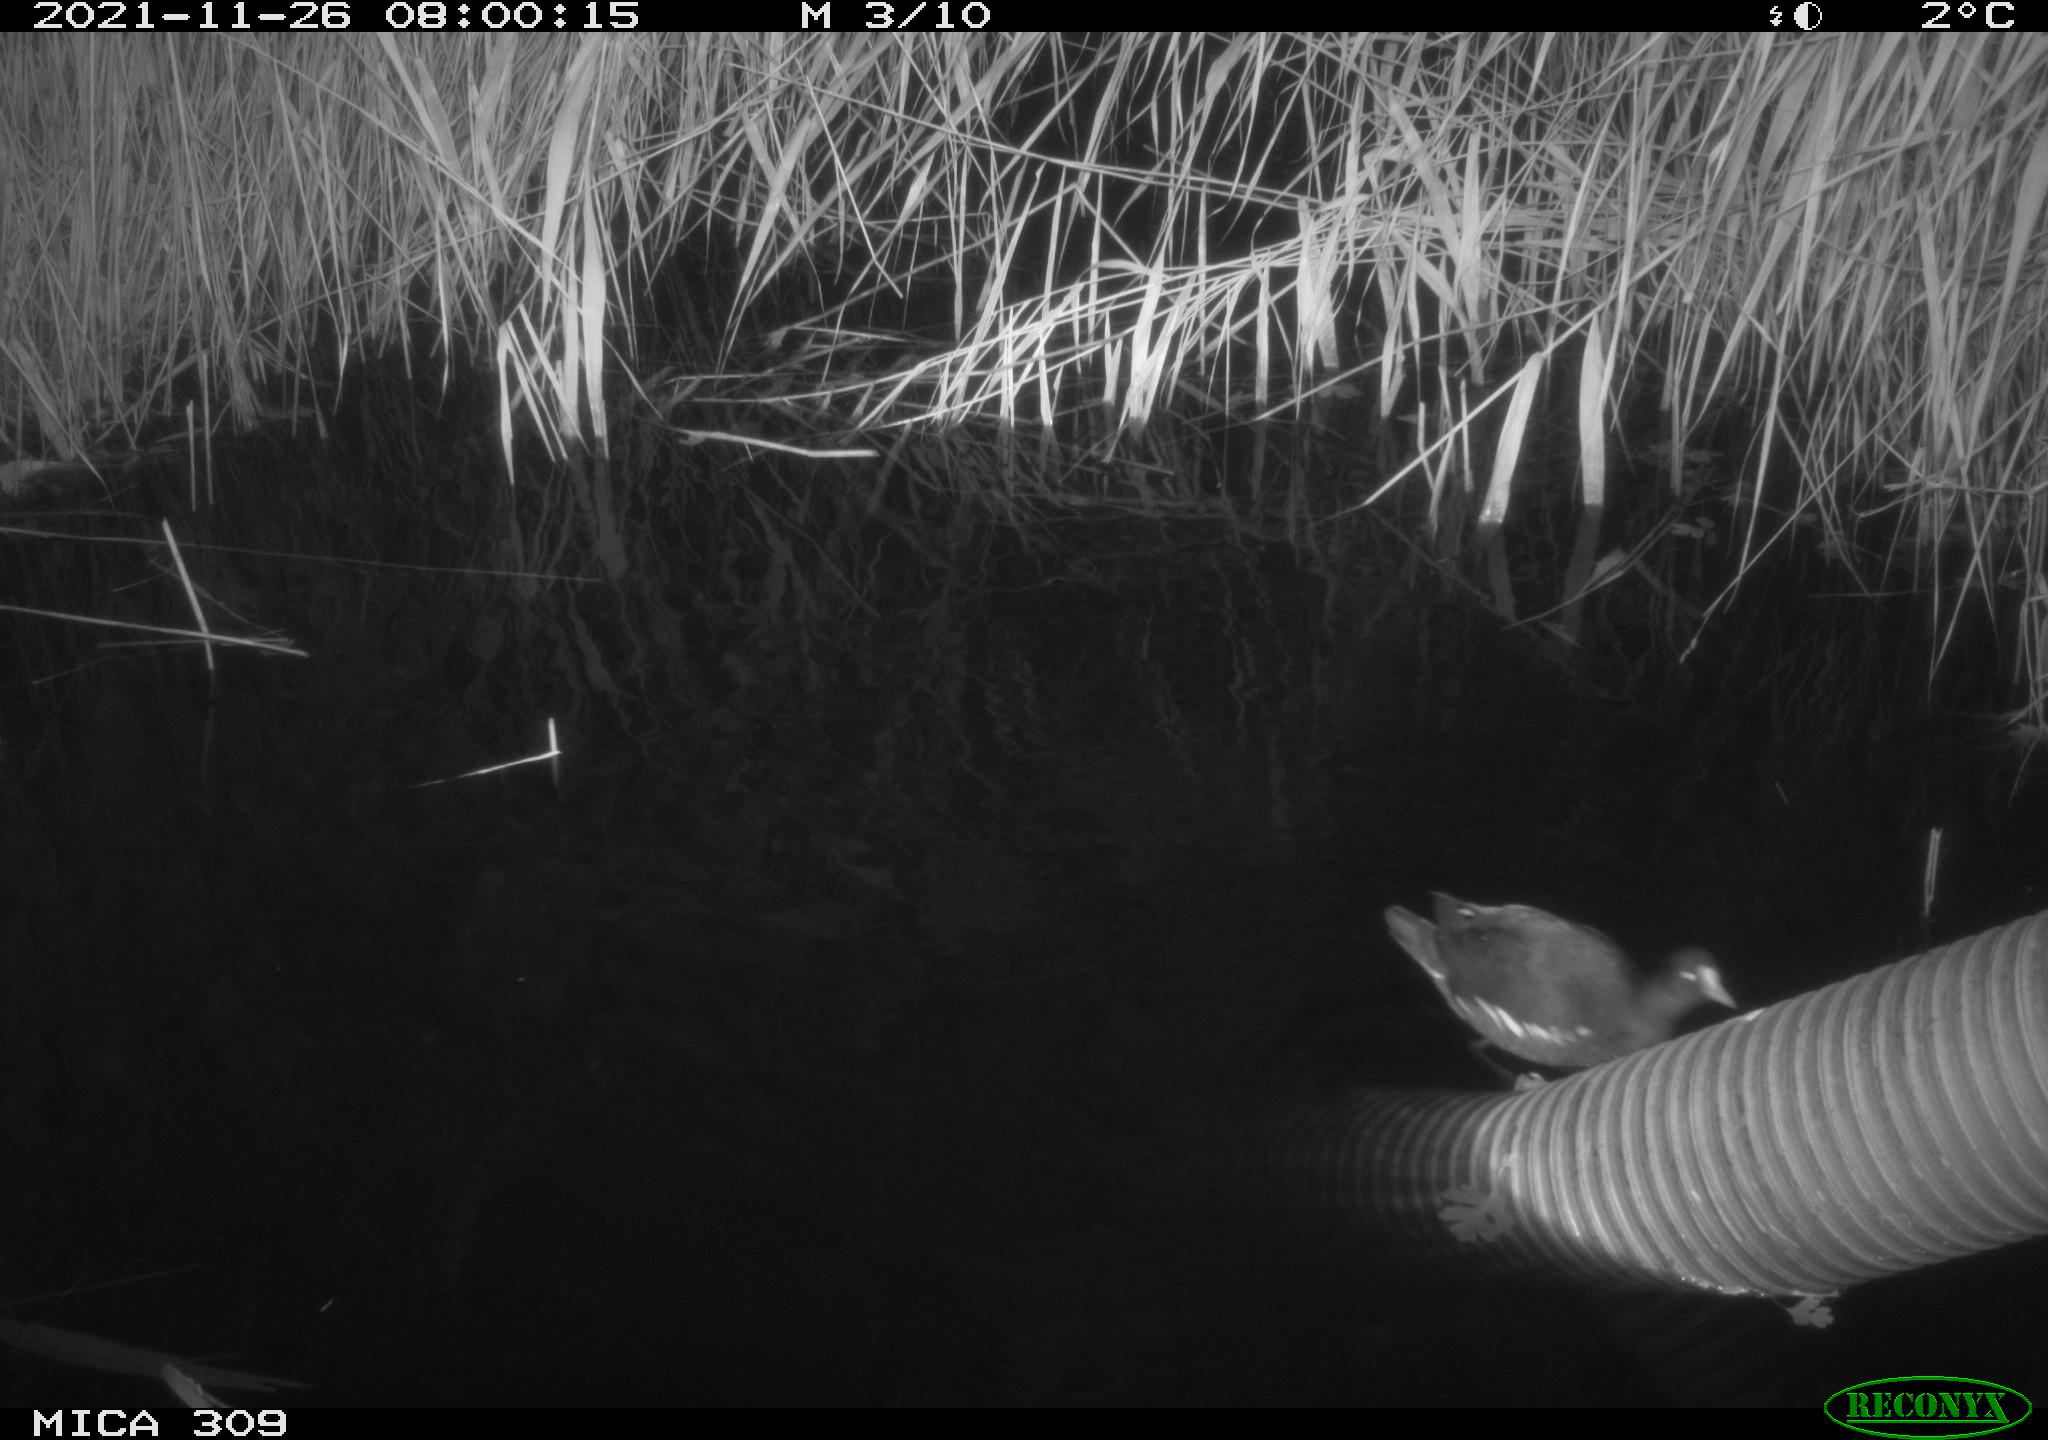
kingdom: Animalia
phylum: Chordata
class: Aves
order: Gruiformes
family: Rallidae
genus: Gallinula
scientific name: Gallinula chloropus
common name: Common moorhen
